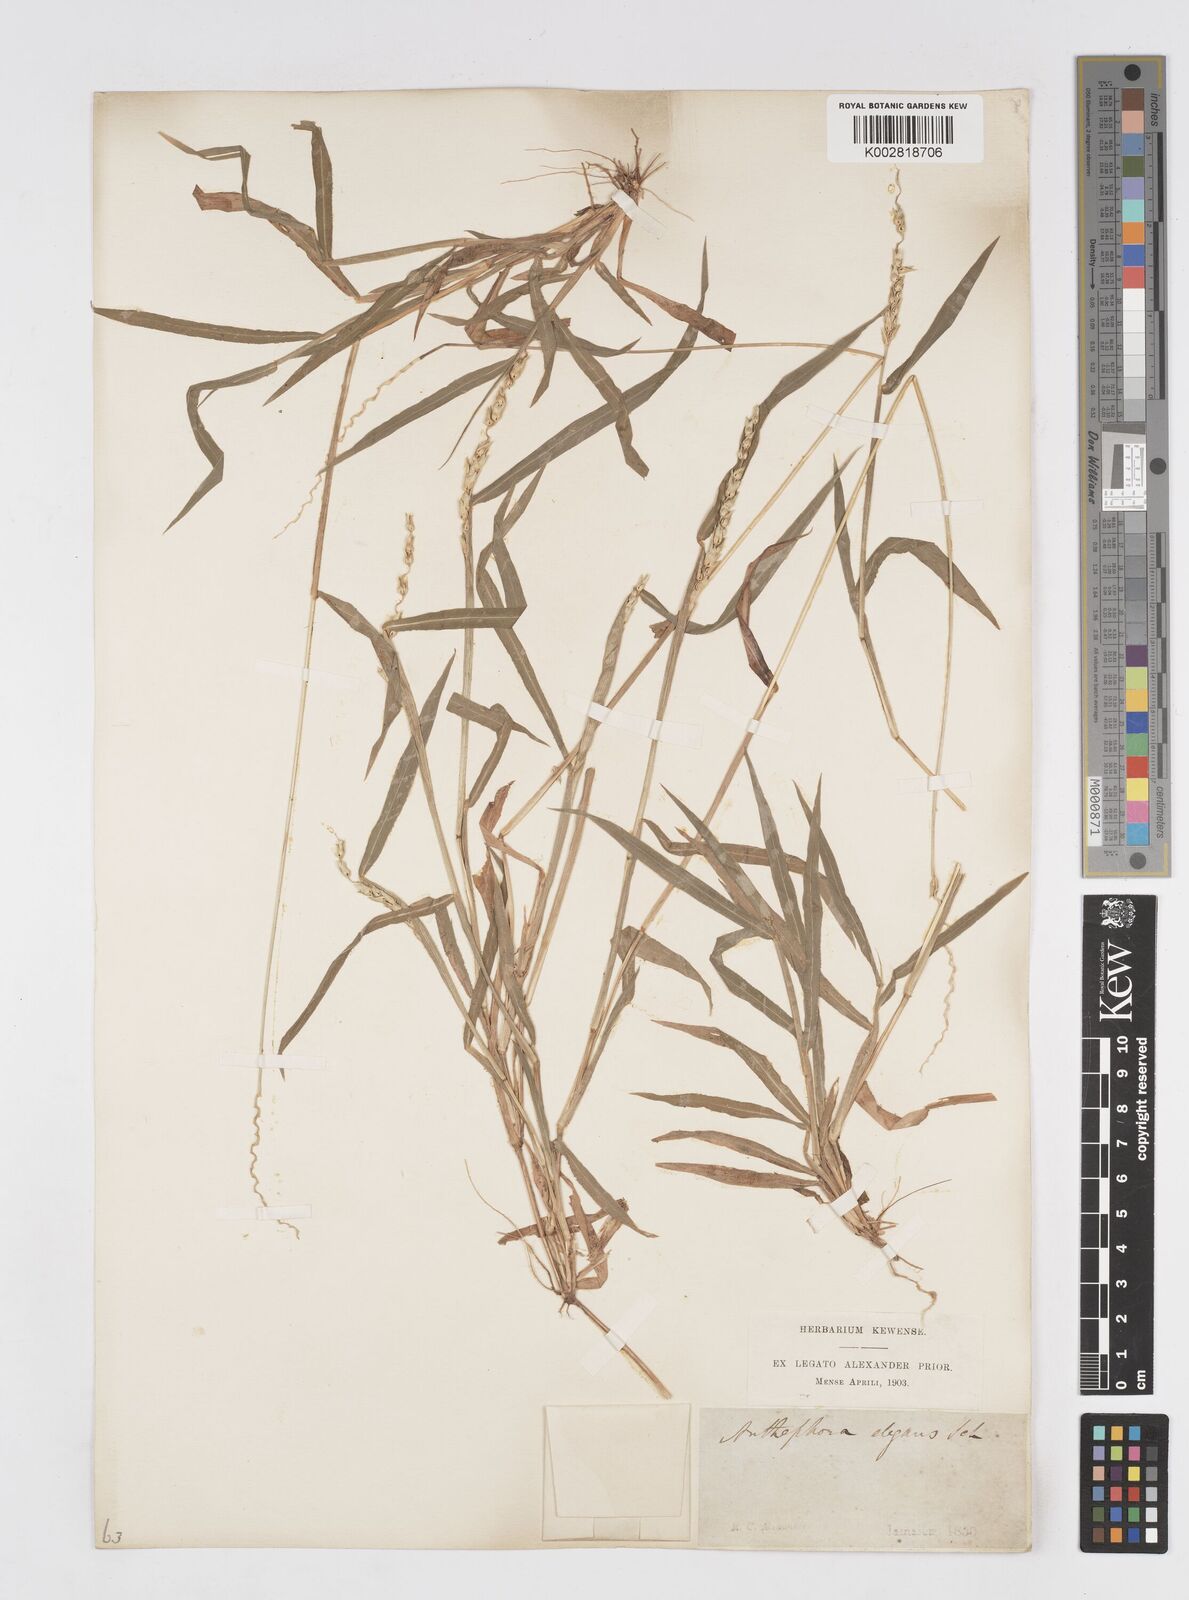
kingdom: Plantae
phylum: Tracheophyta
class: Liliopsida
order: Poales
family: Poaceae
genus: Anthephora
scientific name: Anthephora hermaphrodita
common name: Oldfield grass
